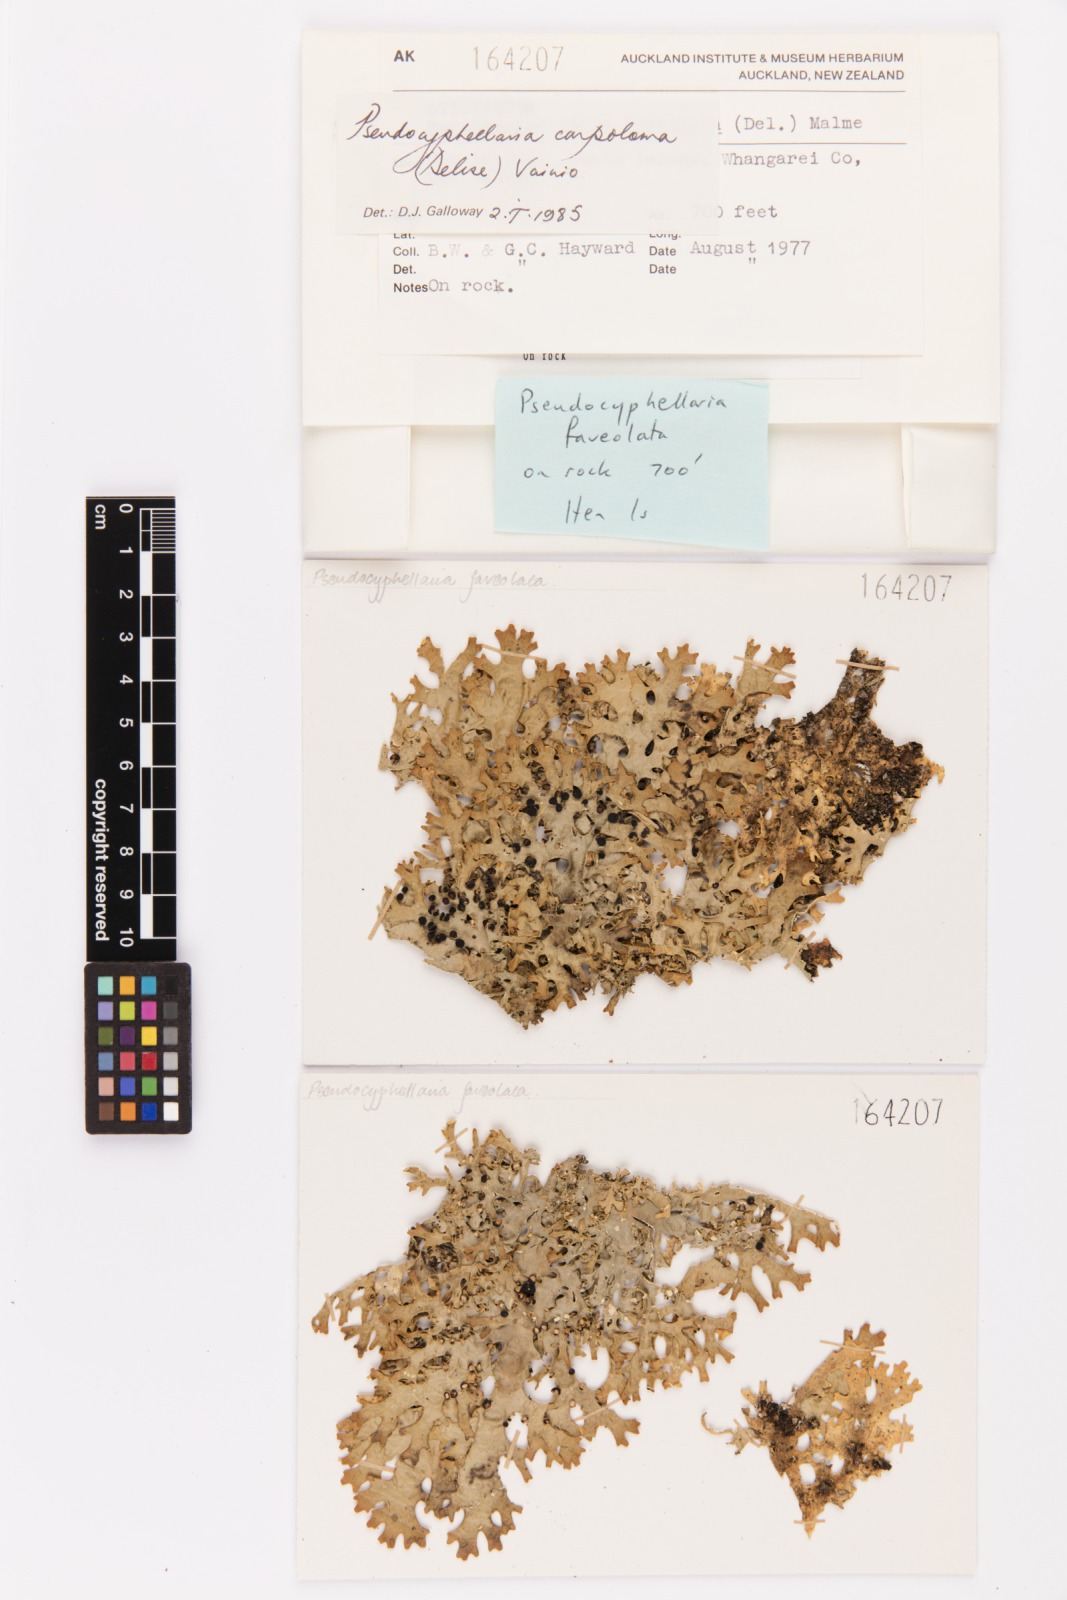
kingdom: Fungi
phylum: Ascomycota
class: Lecanoromycetes
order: Peltigerales
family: Lobariaceae
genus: Pseudocyphellaria
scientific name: Pseudocyphellaria carpoloma
